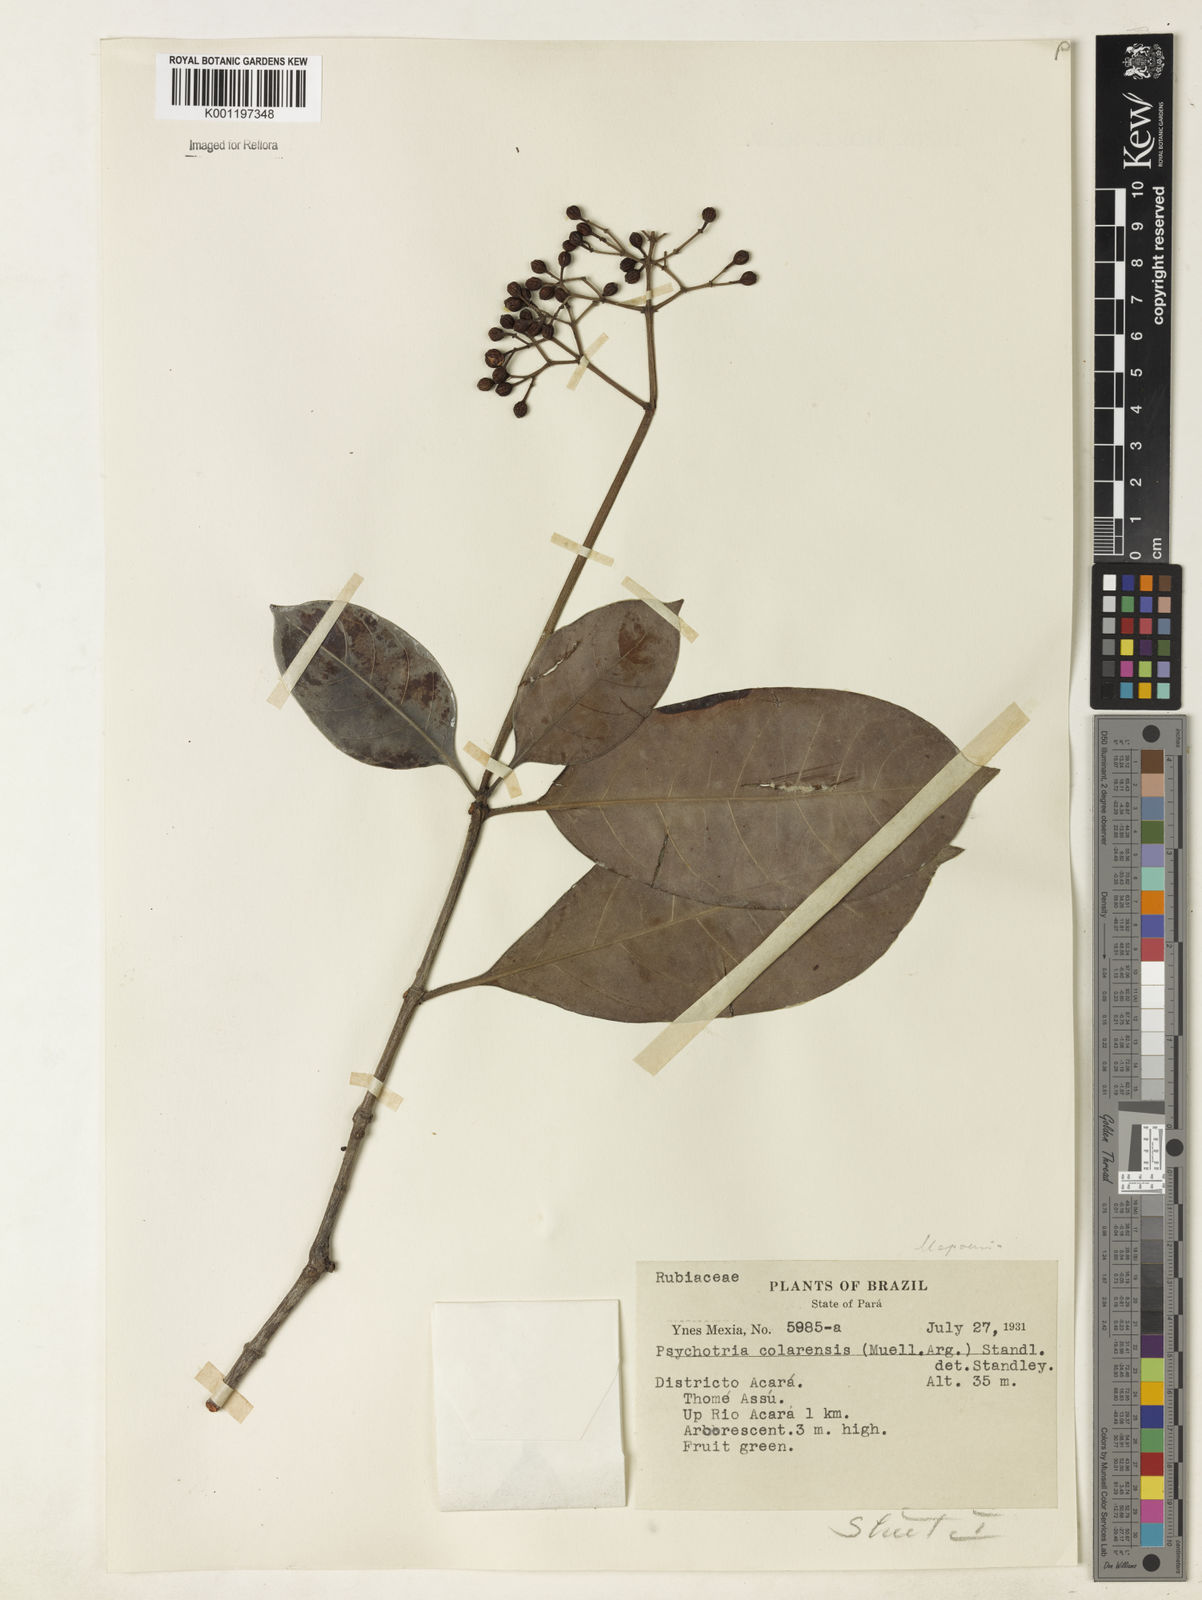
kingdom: Plantae
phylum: Tracheophyta
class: Magnoliopsida
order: Gentianales
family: Rubiaceae
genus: Psychotria
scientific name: Psychotria
